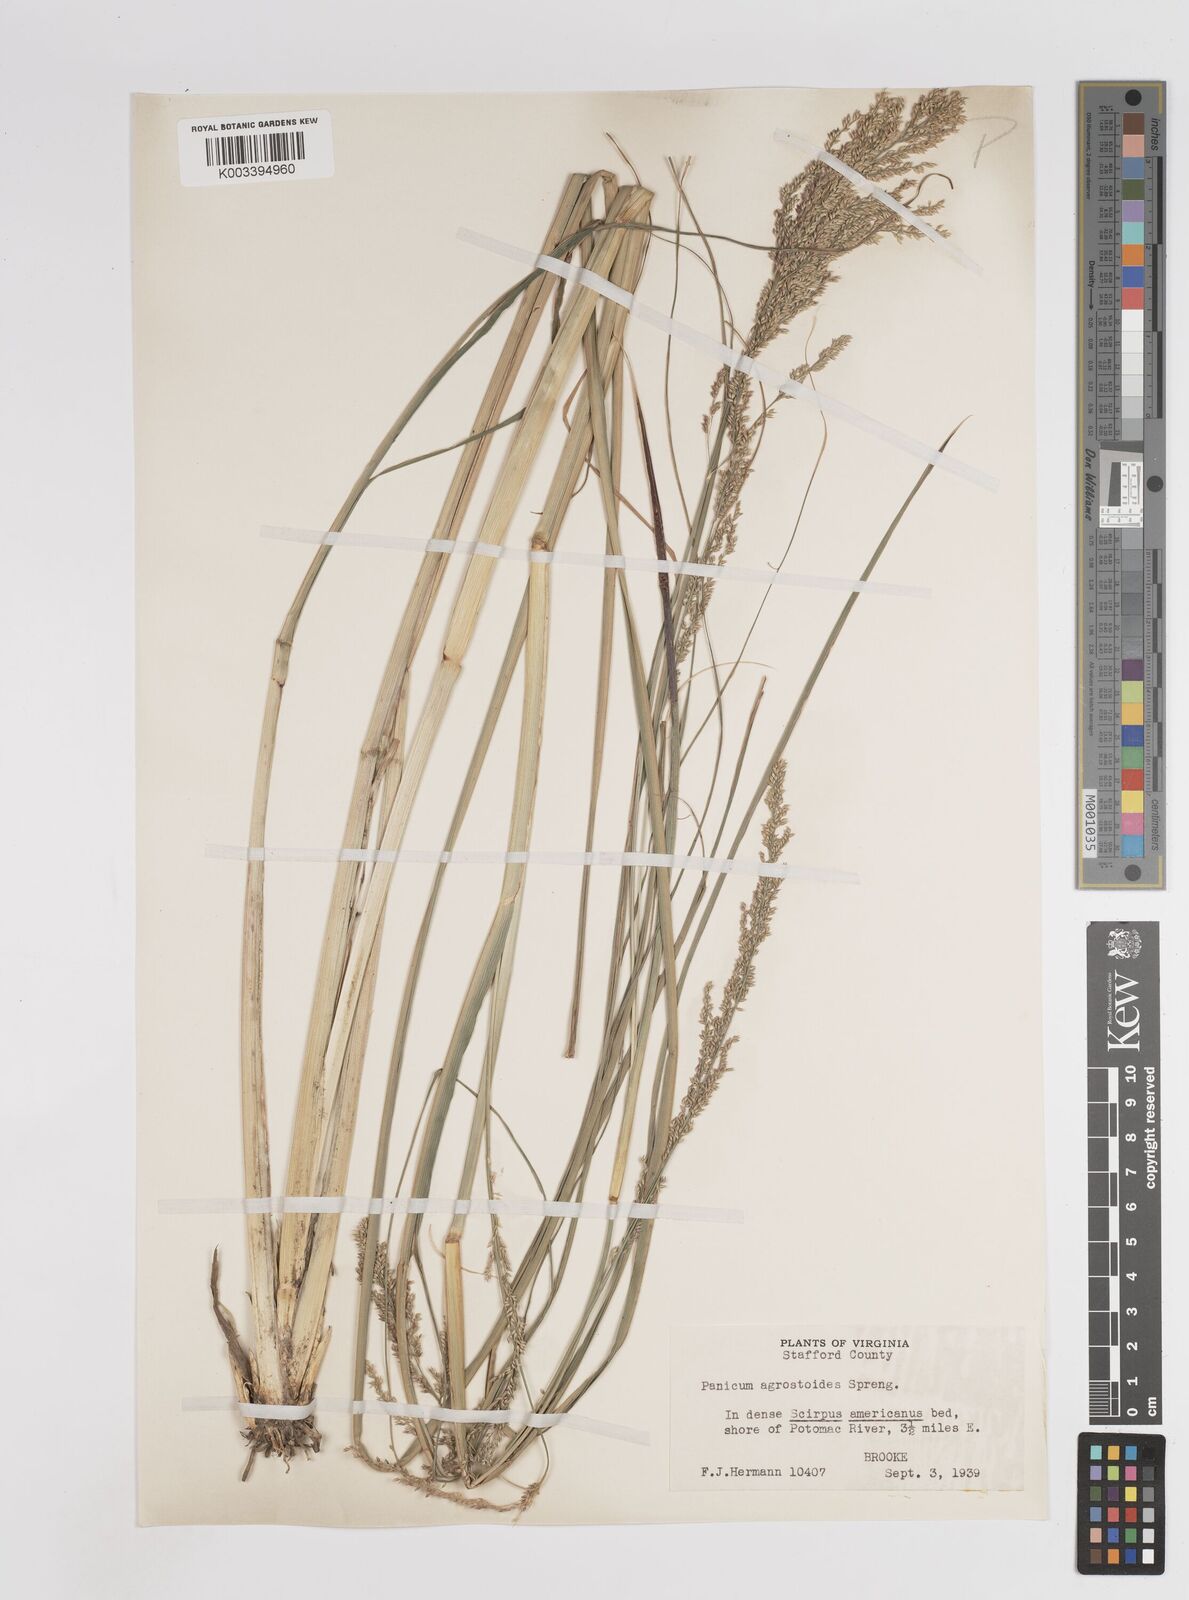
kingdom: Plantae
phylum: Tracheophyta
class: Liliopsida
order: Poales
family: Poaceae
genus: Steinchisma
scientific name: Steinchisma laxum
